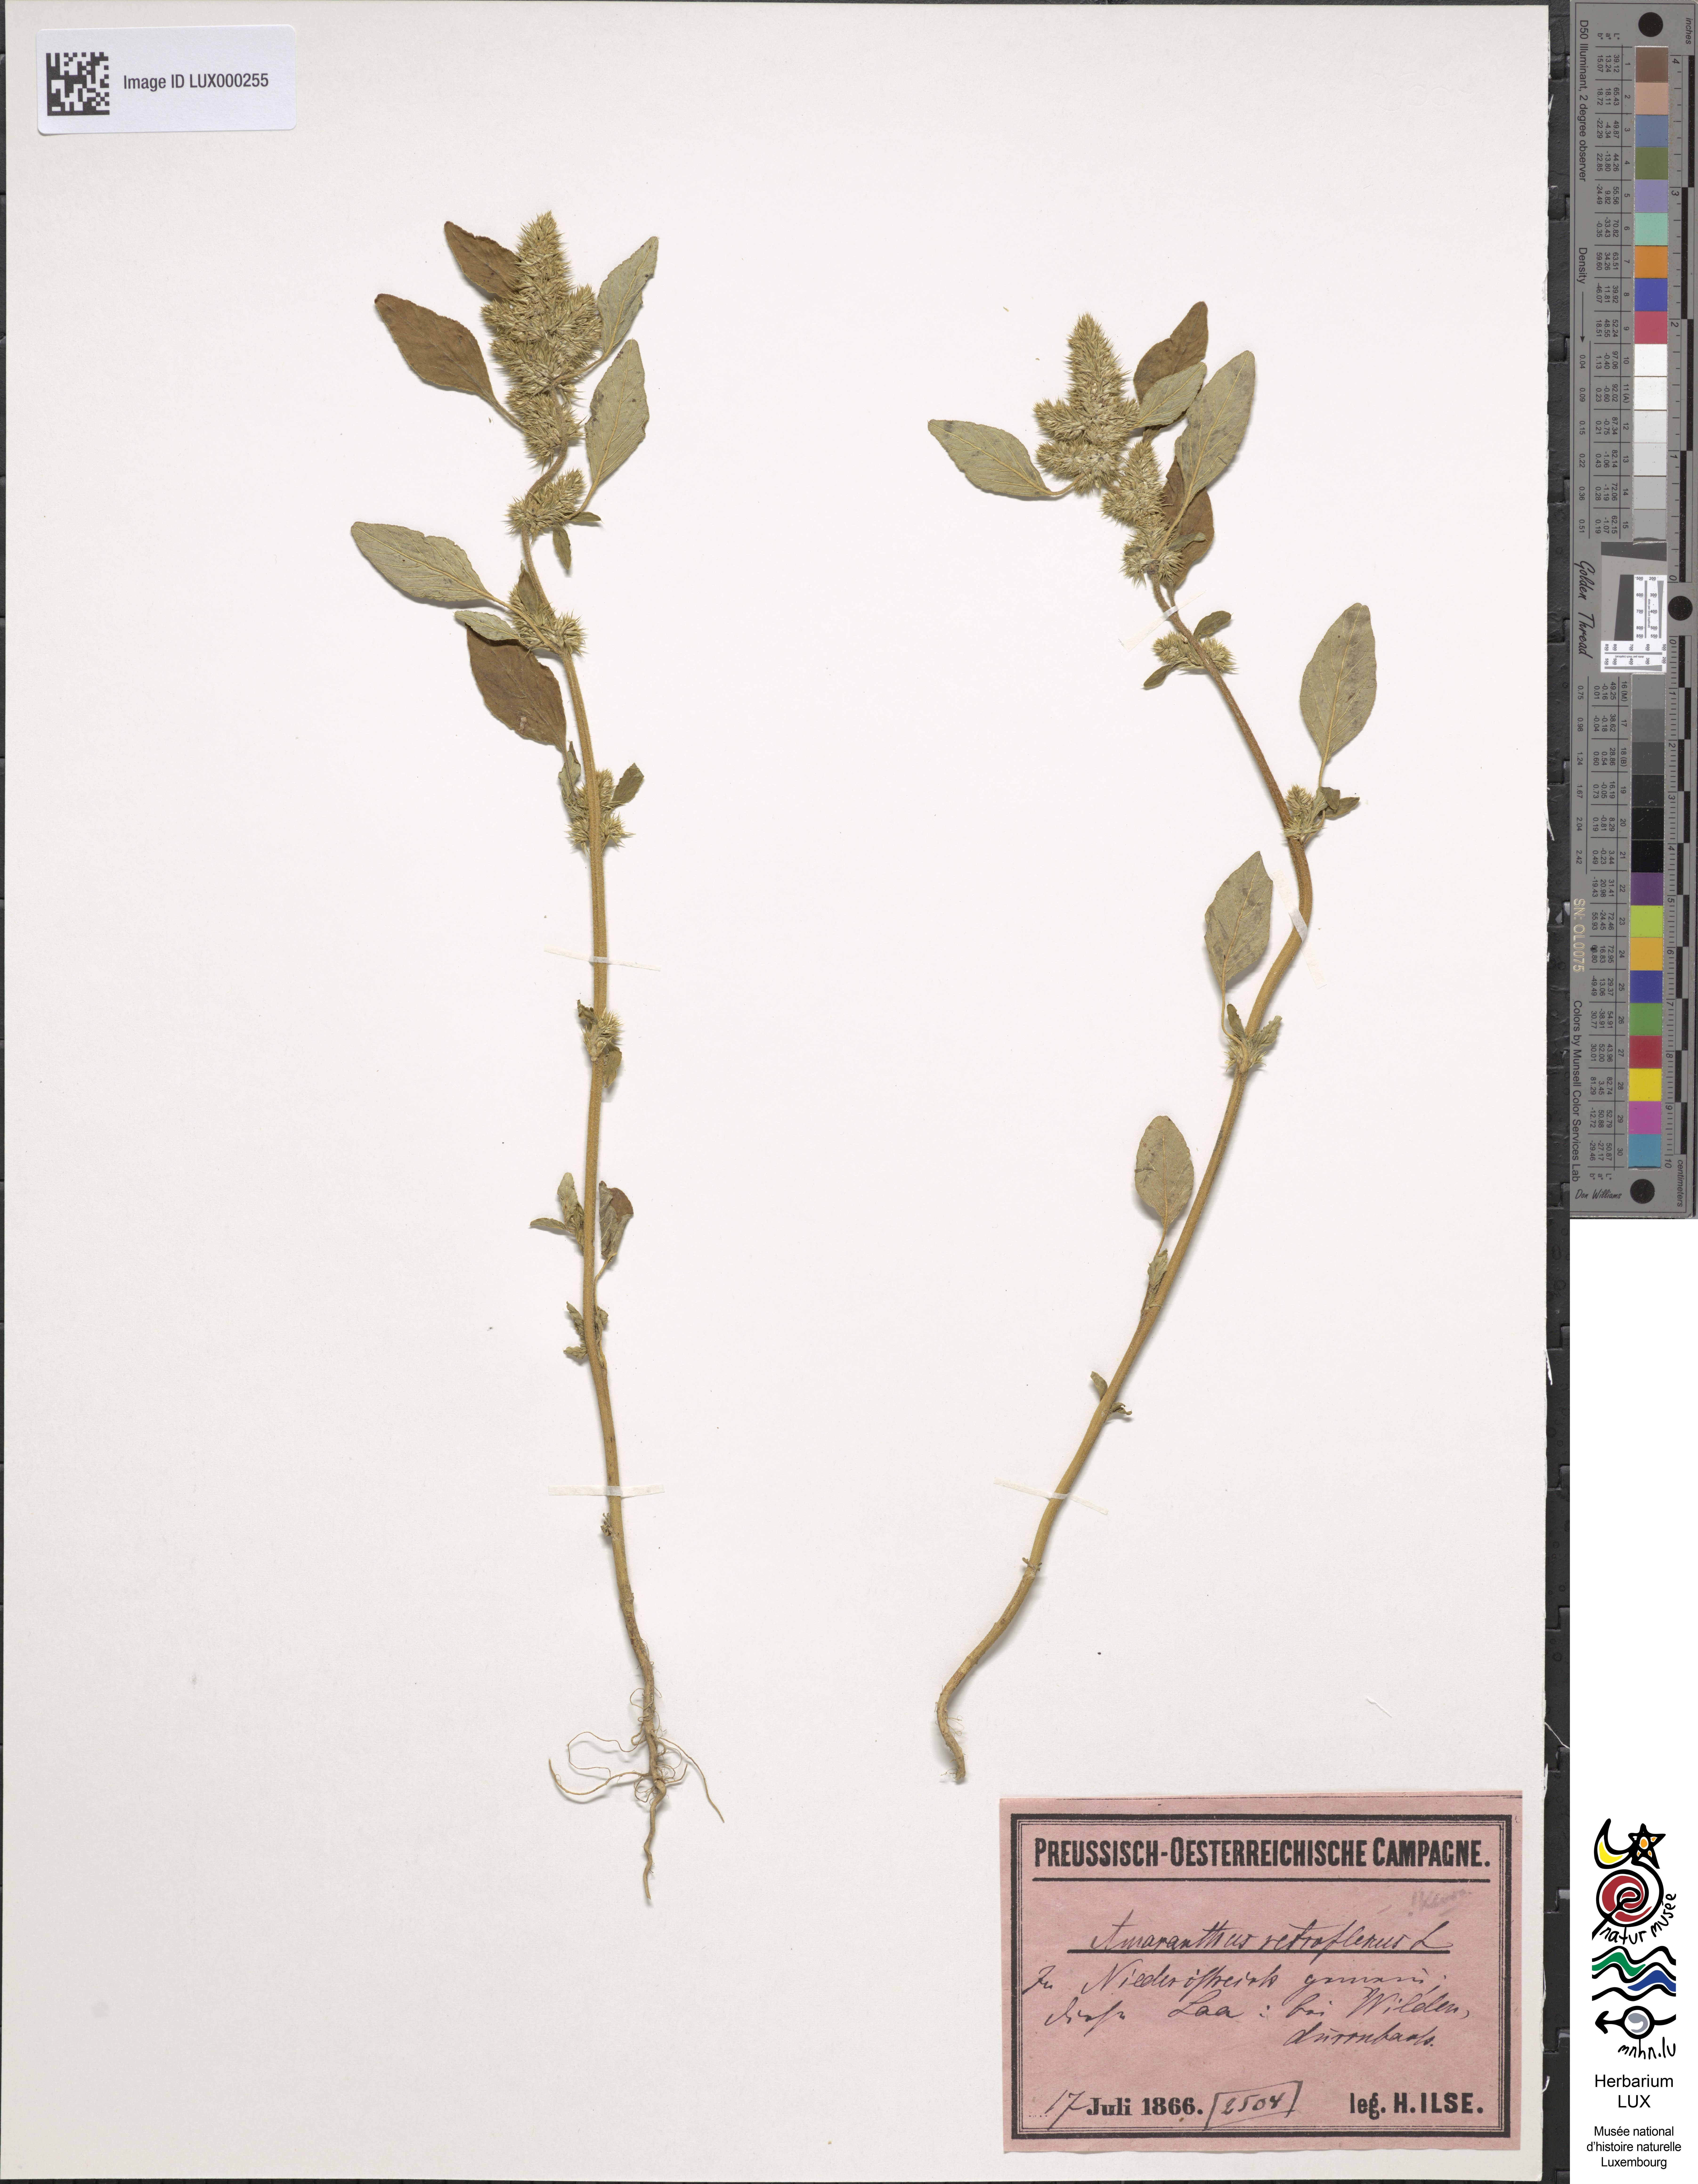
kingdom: Plantae
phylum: Tracheophyta
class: Magnoliopsida
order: Caryophyllales
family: Amaranthaceae
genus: Amaranthus
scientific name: Amaranthus retroflexus
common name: Redroot amaranth
